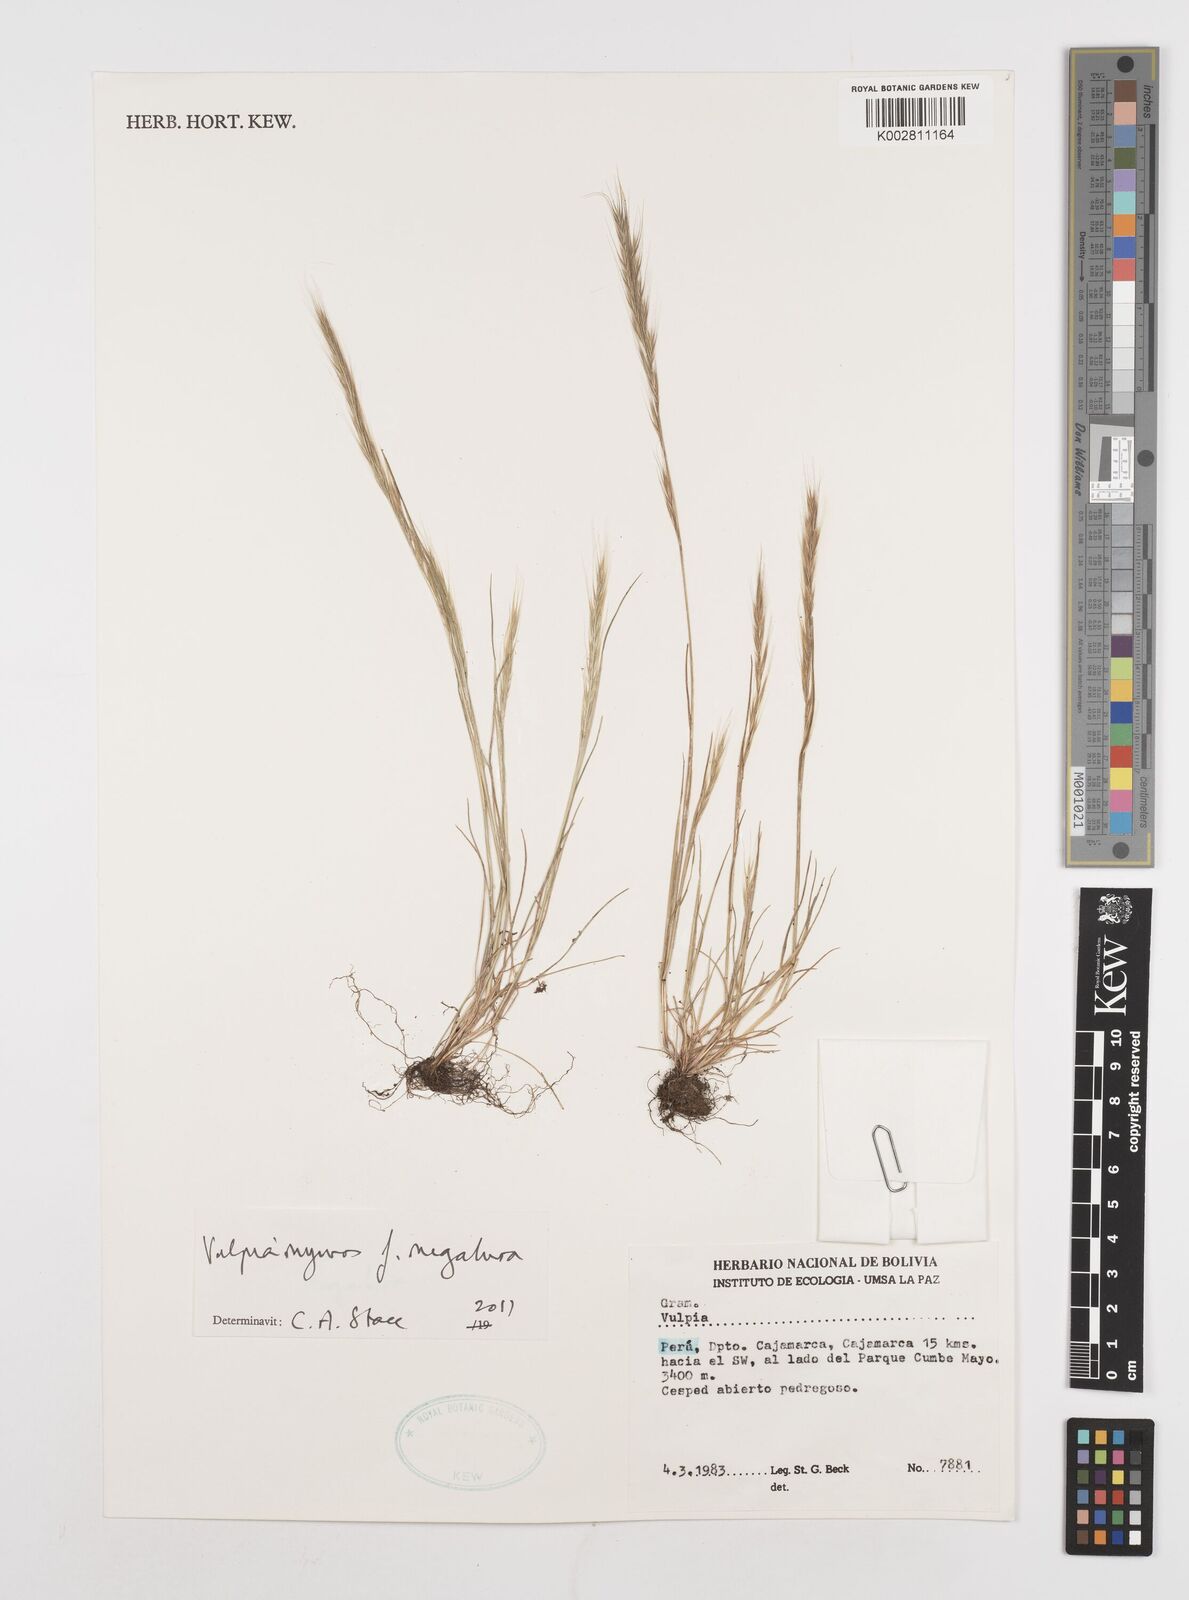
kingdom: Plantae
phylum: Tracheophyta
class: Liliopsida
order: Poales
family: Poaceae
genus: Festuca
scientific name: Festuca myuros
